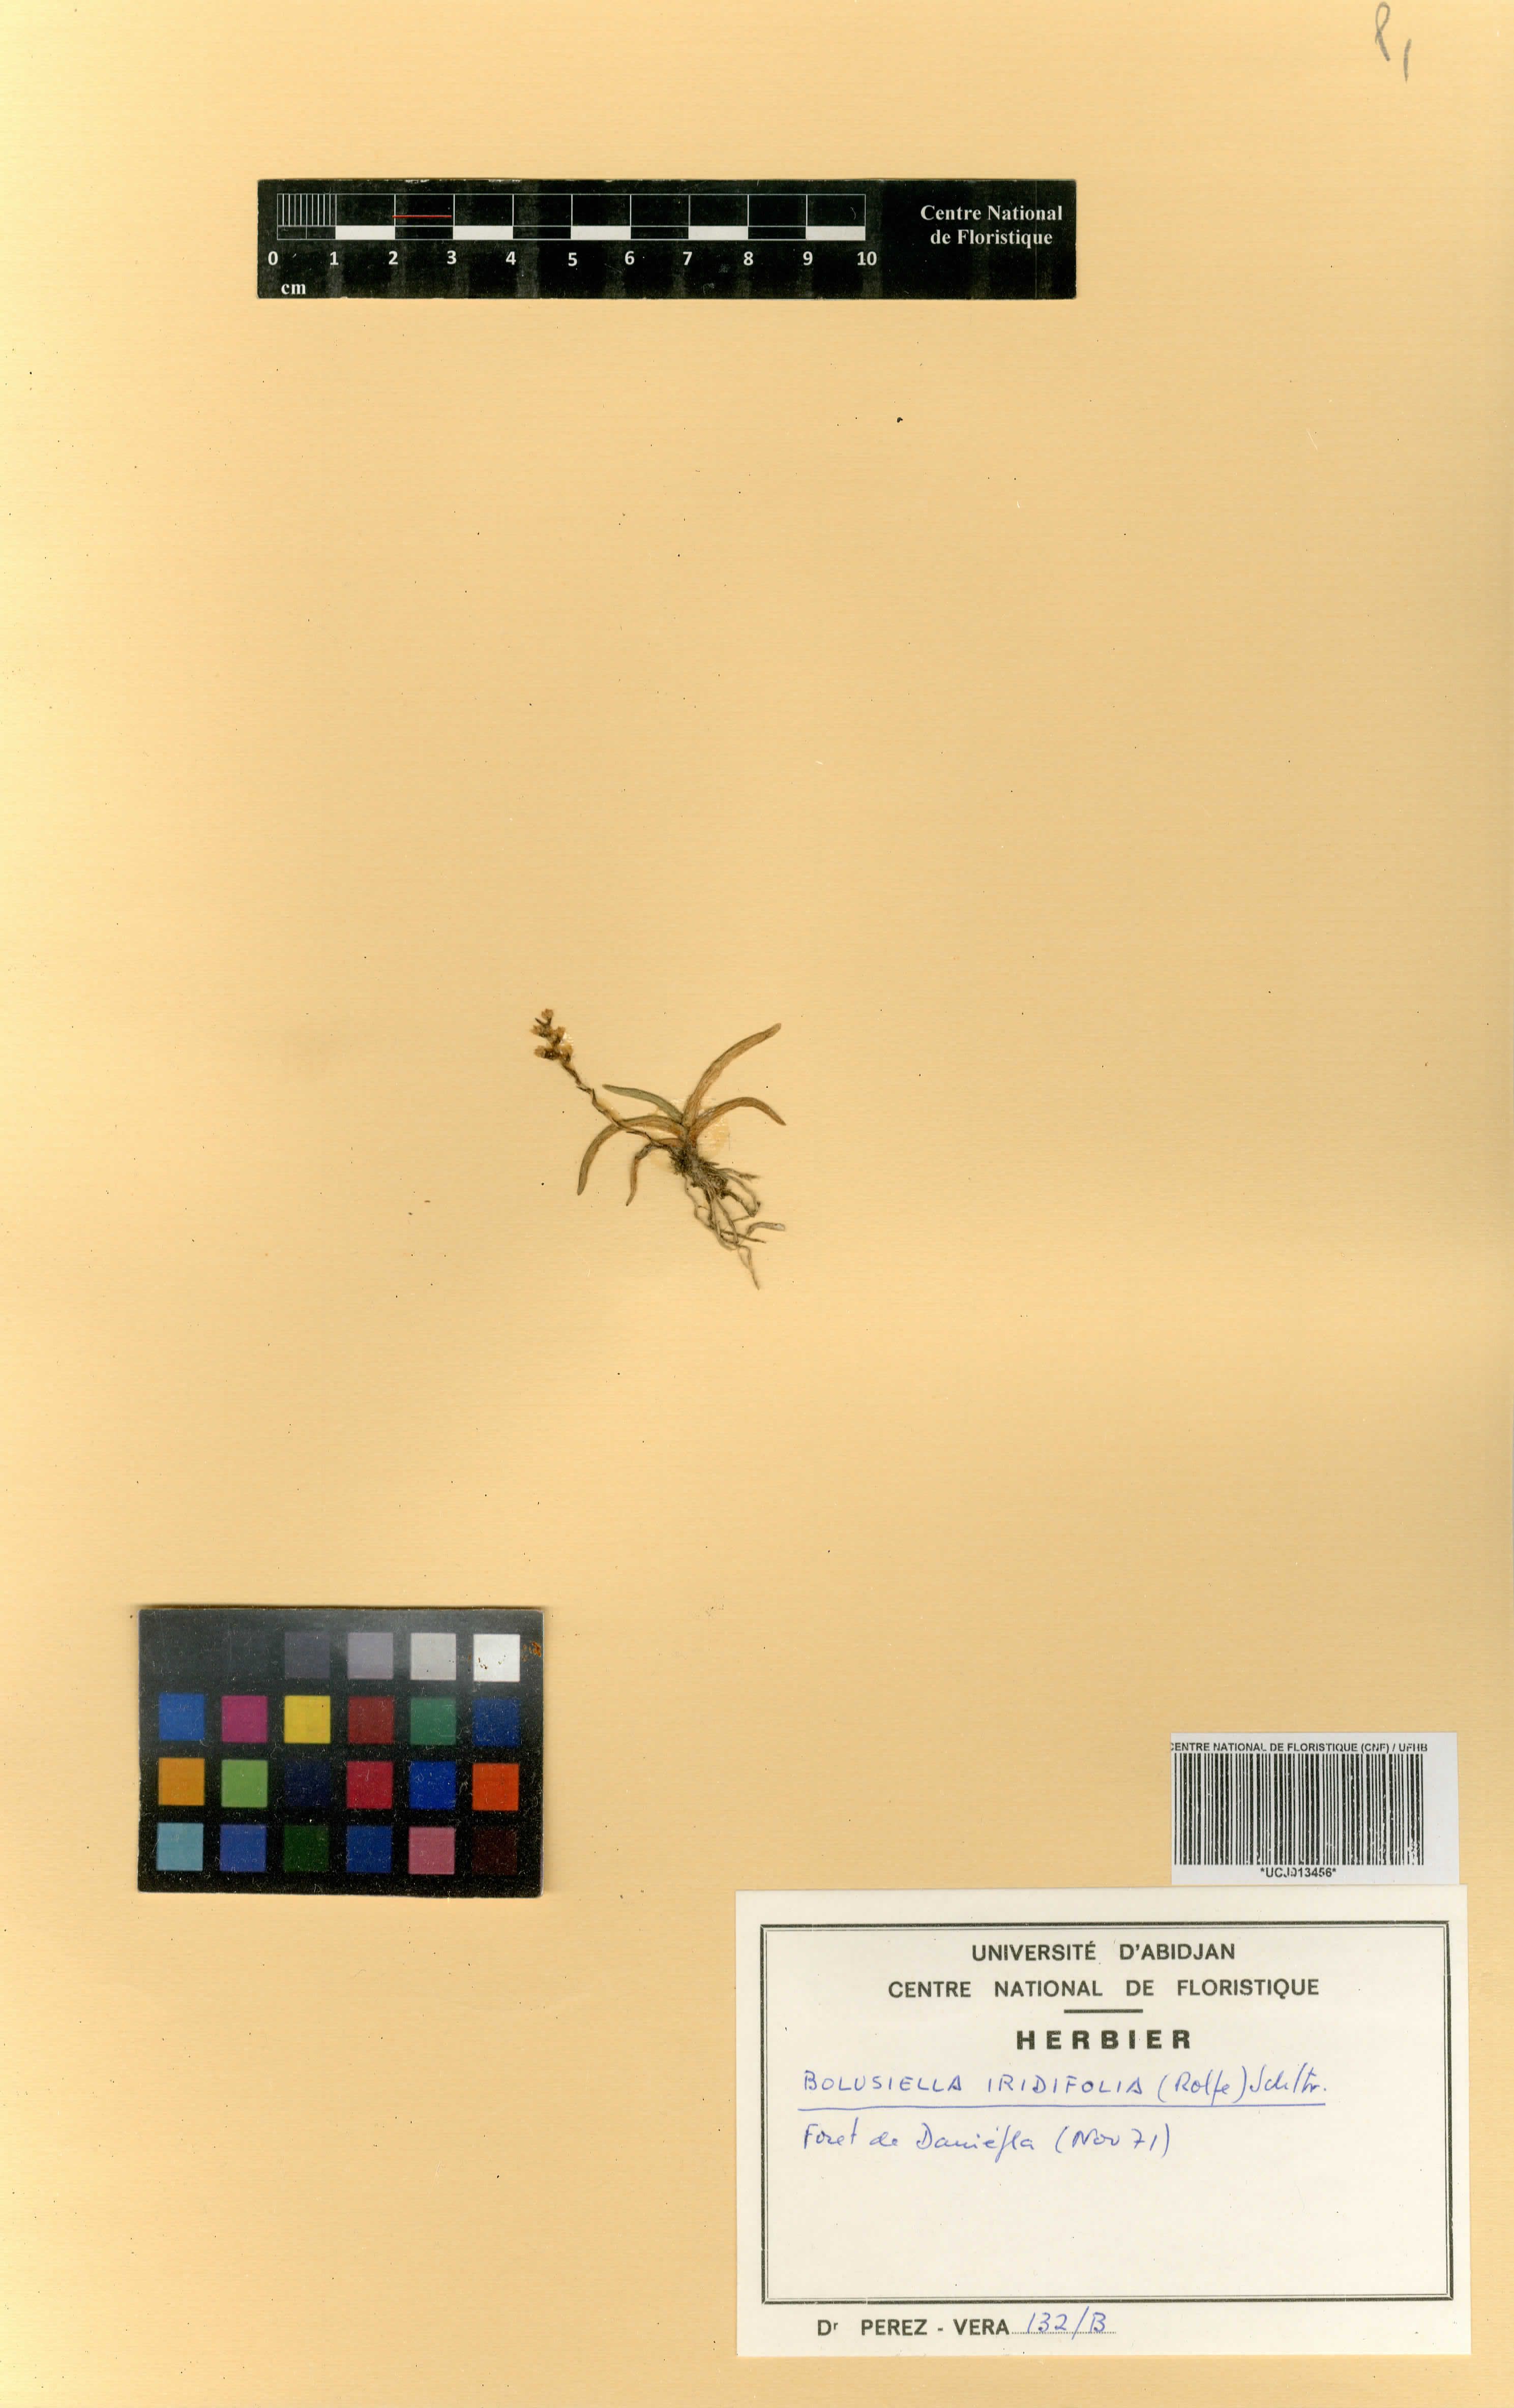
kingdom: Plantae
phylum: Tracheophyta
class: Liliopsida
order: Asparagales
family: Orchidaceae
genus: Bolusiella
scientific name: Bolusiella iridifolia
